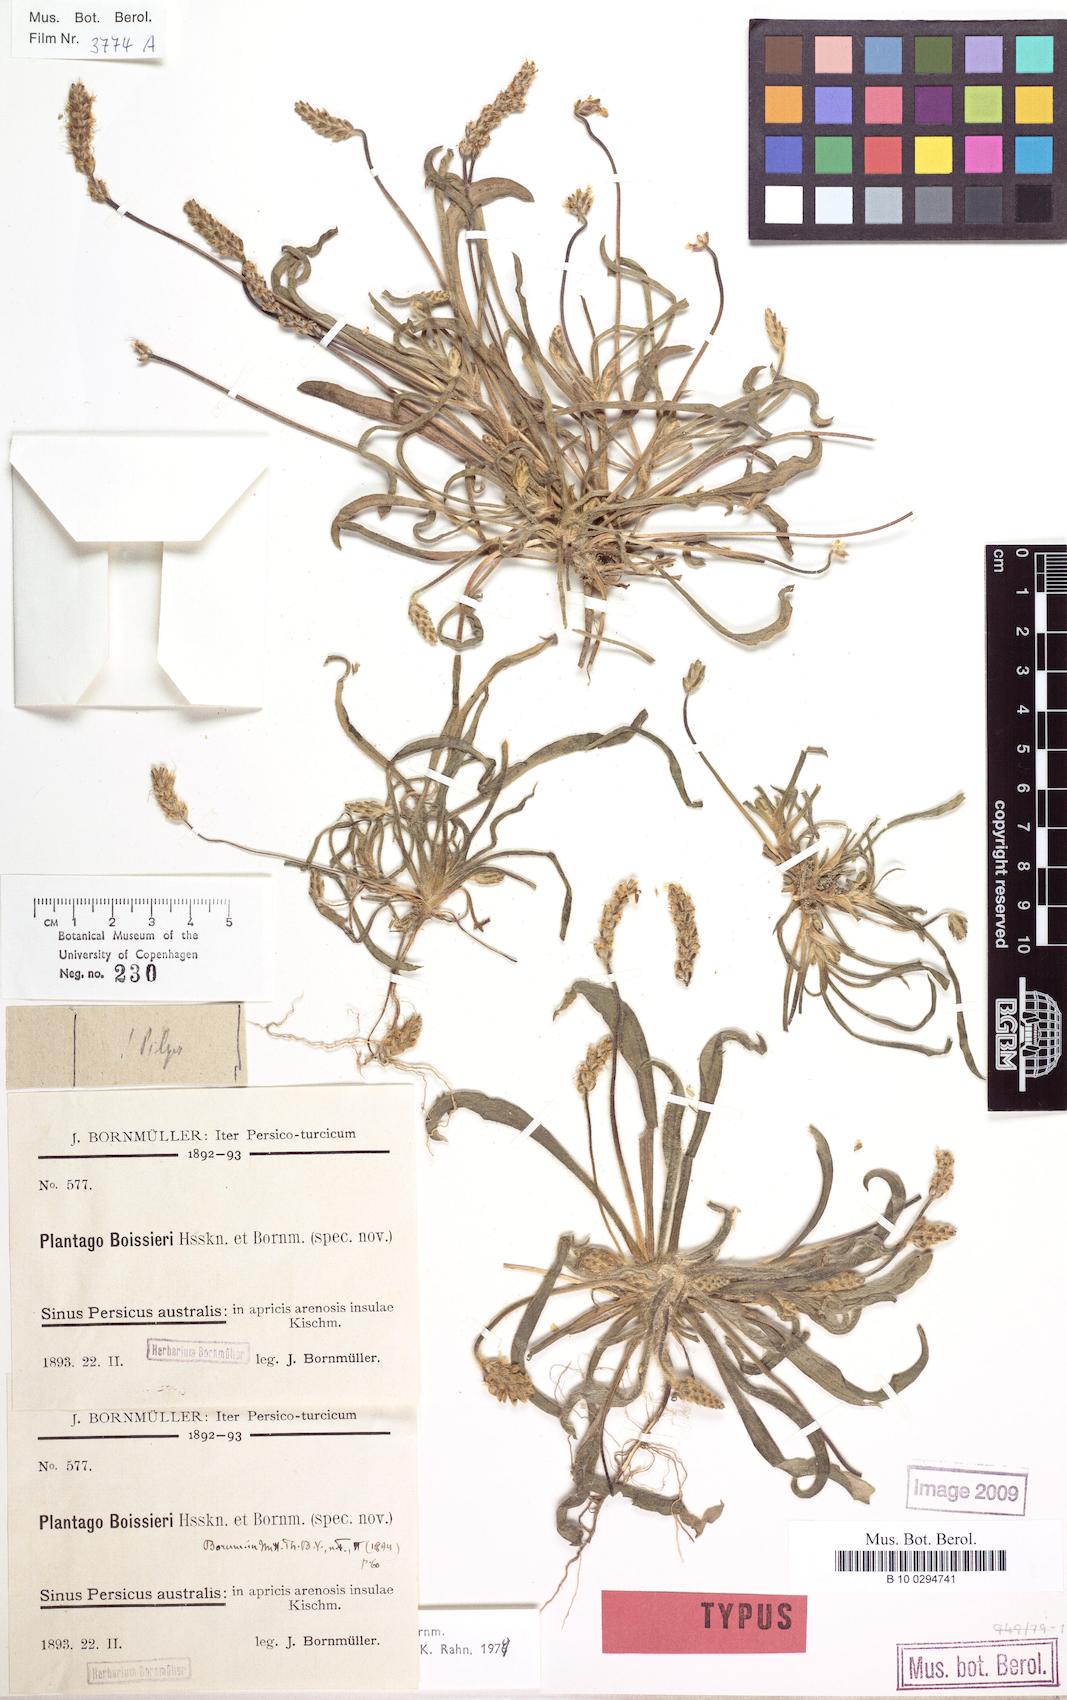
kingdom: Plantae
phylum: Tracheophyta
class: Magnoliopsida
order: Lamiales
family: Plantaginaceae
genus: Plantago
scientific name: Plantago boissieri
